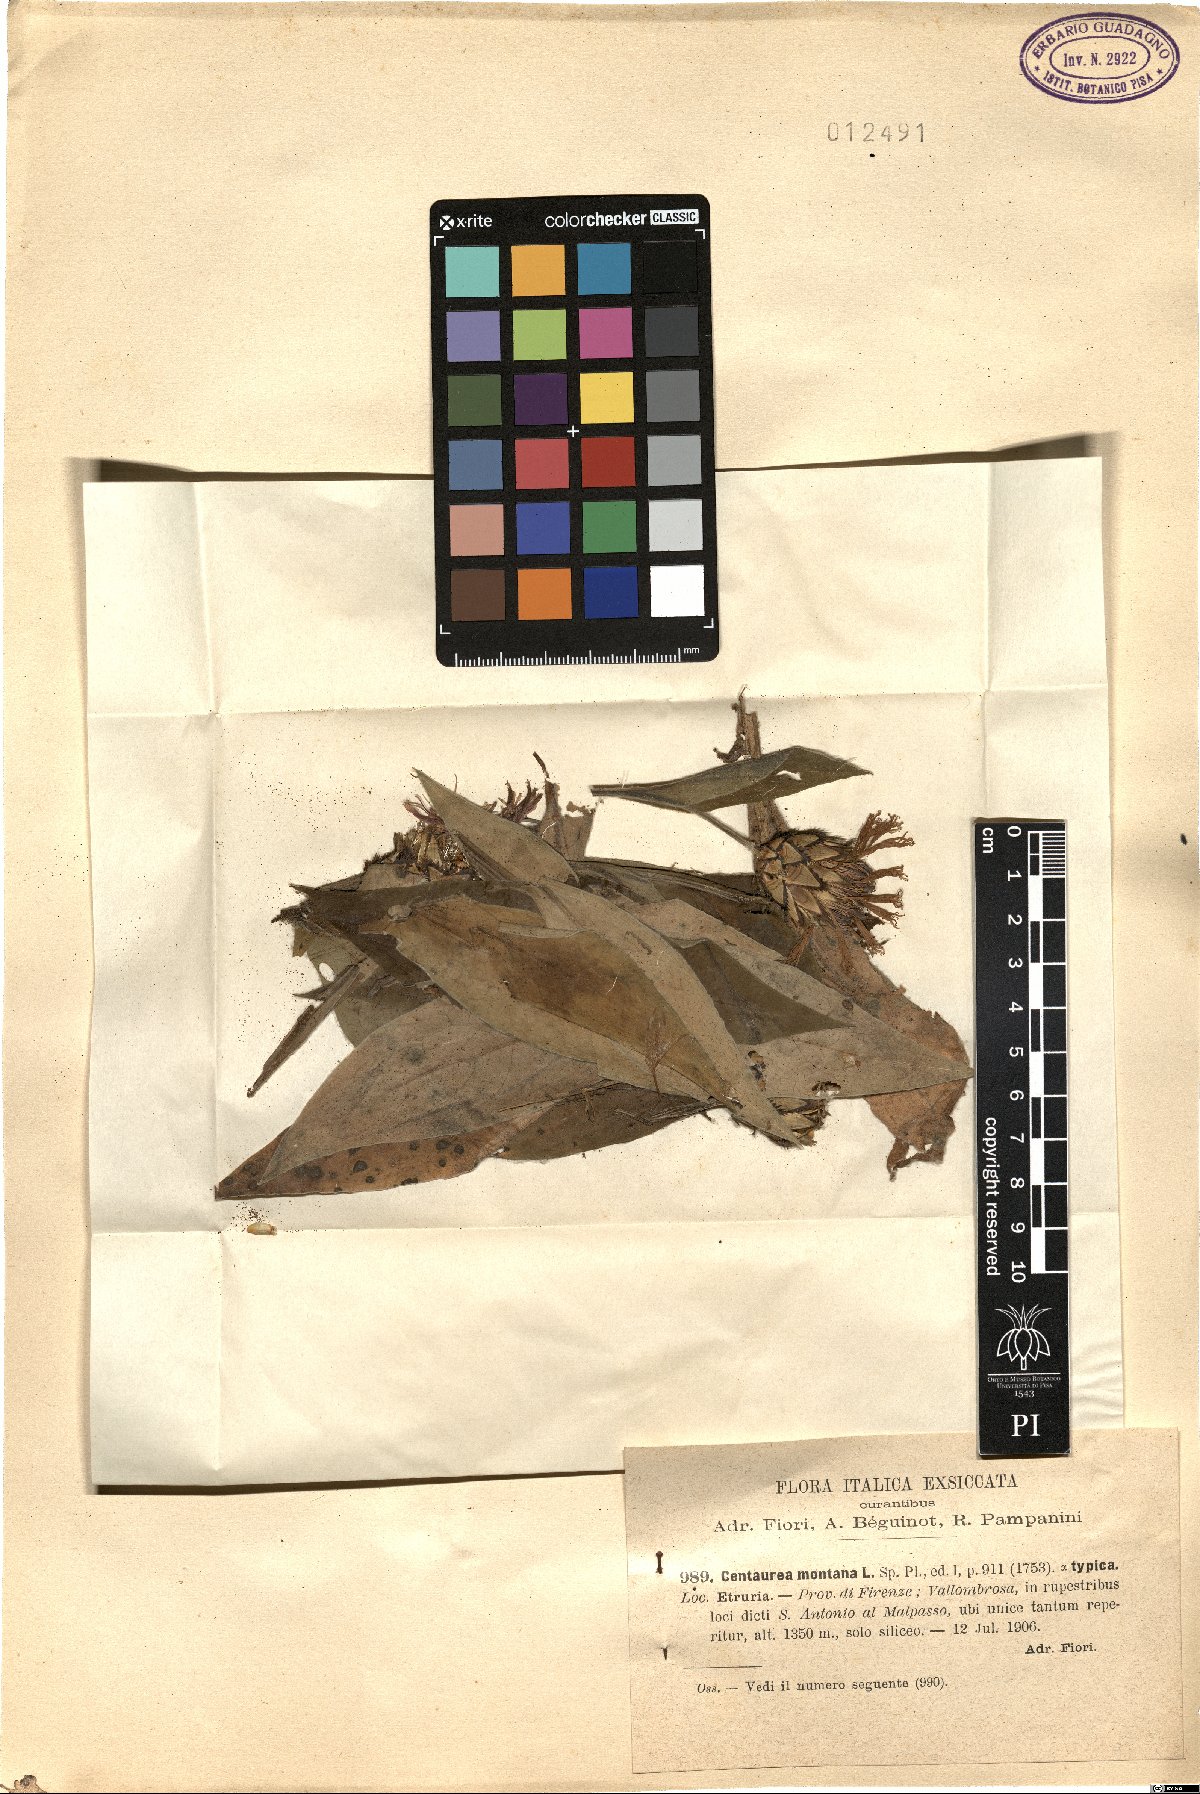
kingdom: Plantae
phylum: Tracheophyta
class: Magnoliopsida
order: Asterales
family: Asteraceae
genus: Centaurea
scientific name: Centaurea montana
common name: Perennial cornflower
